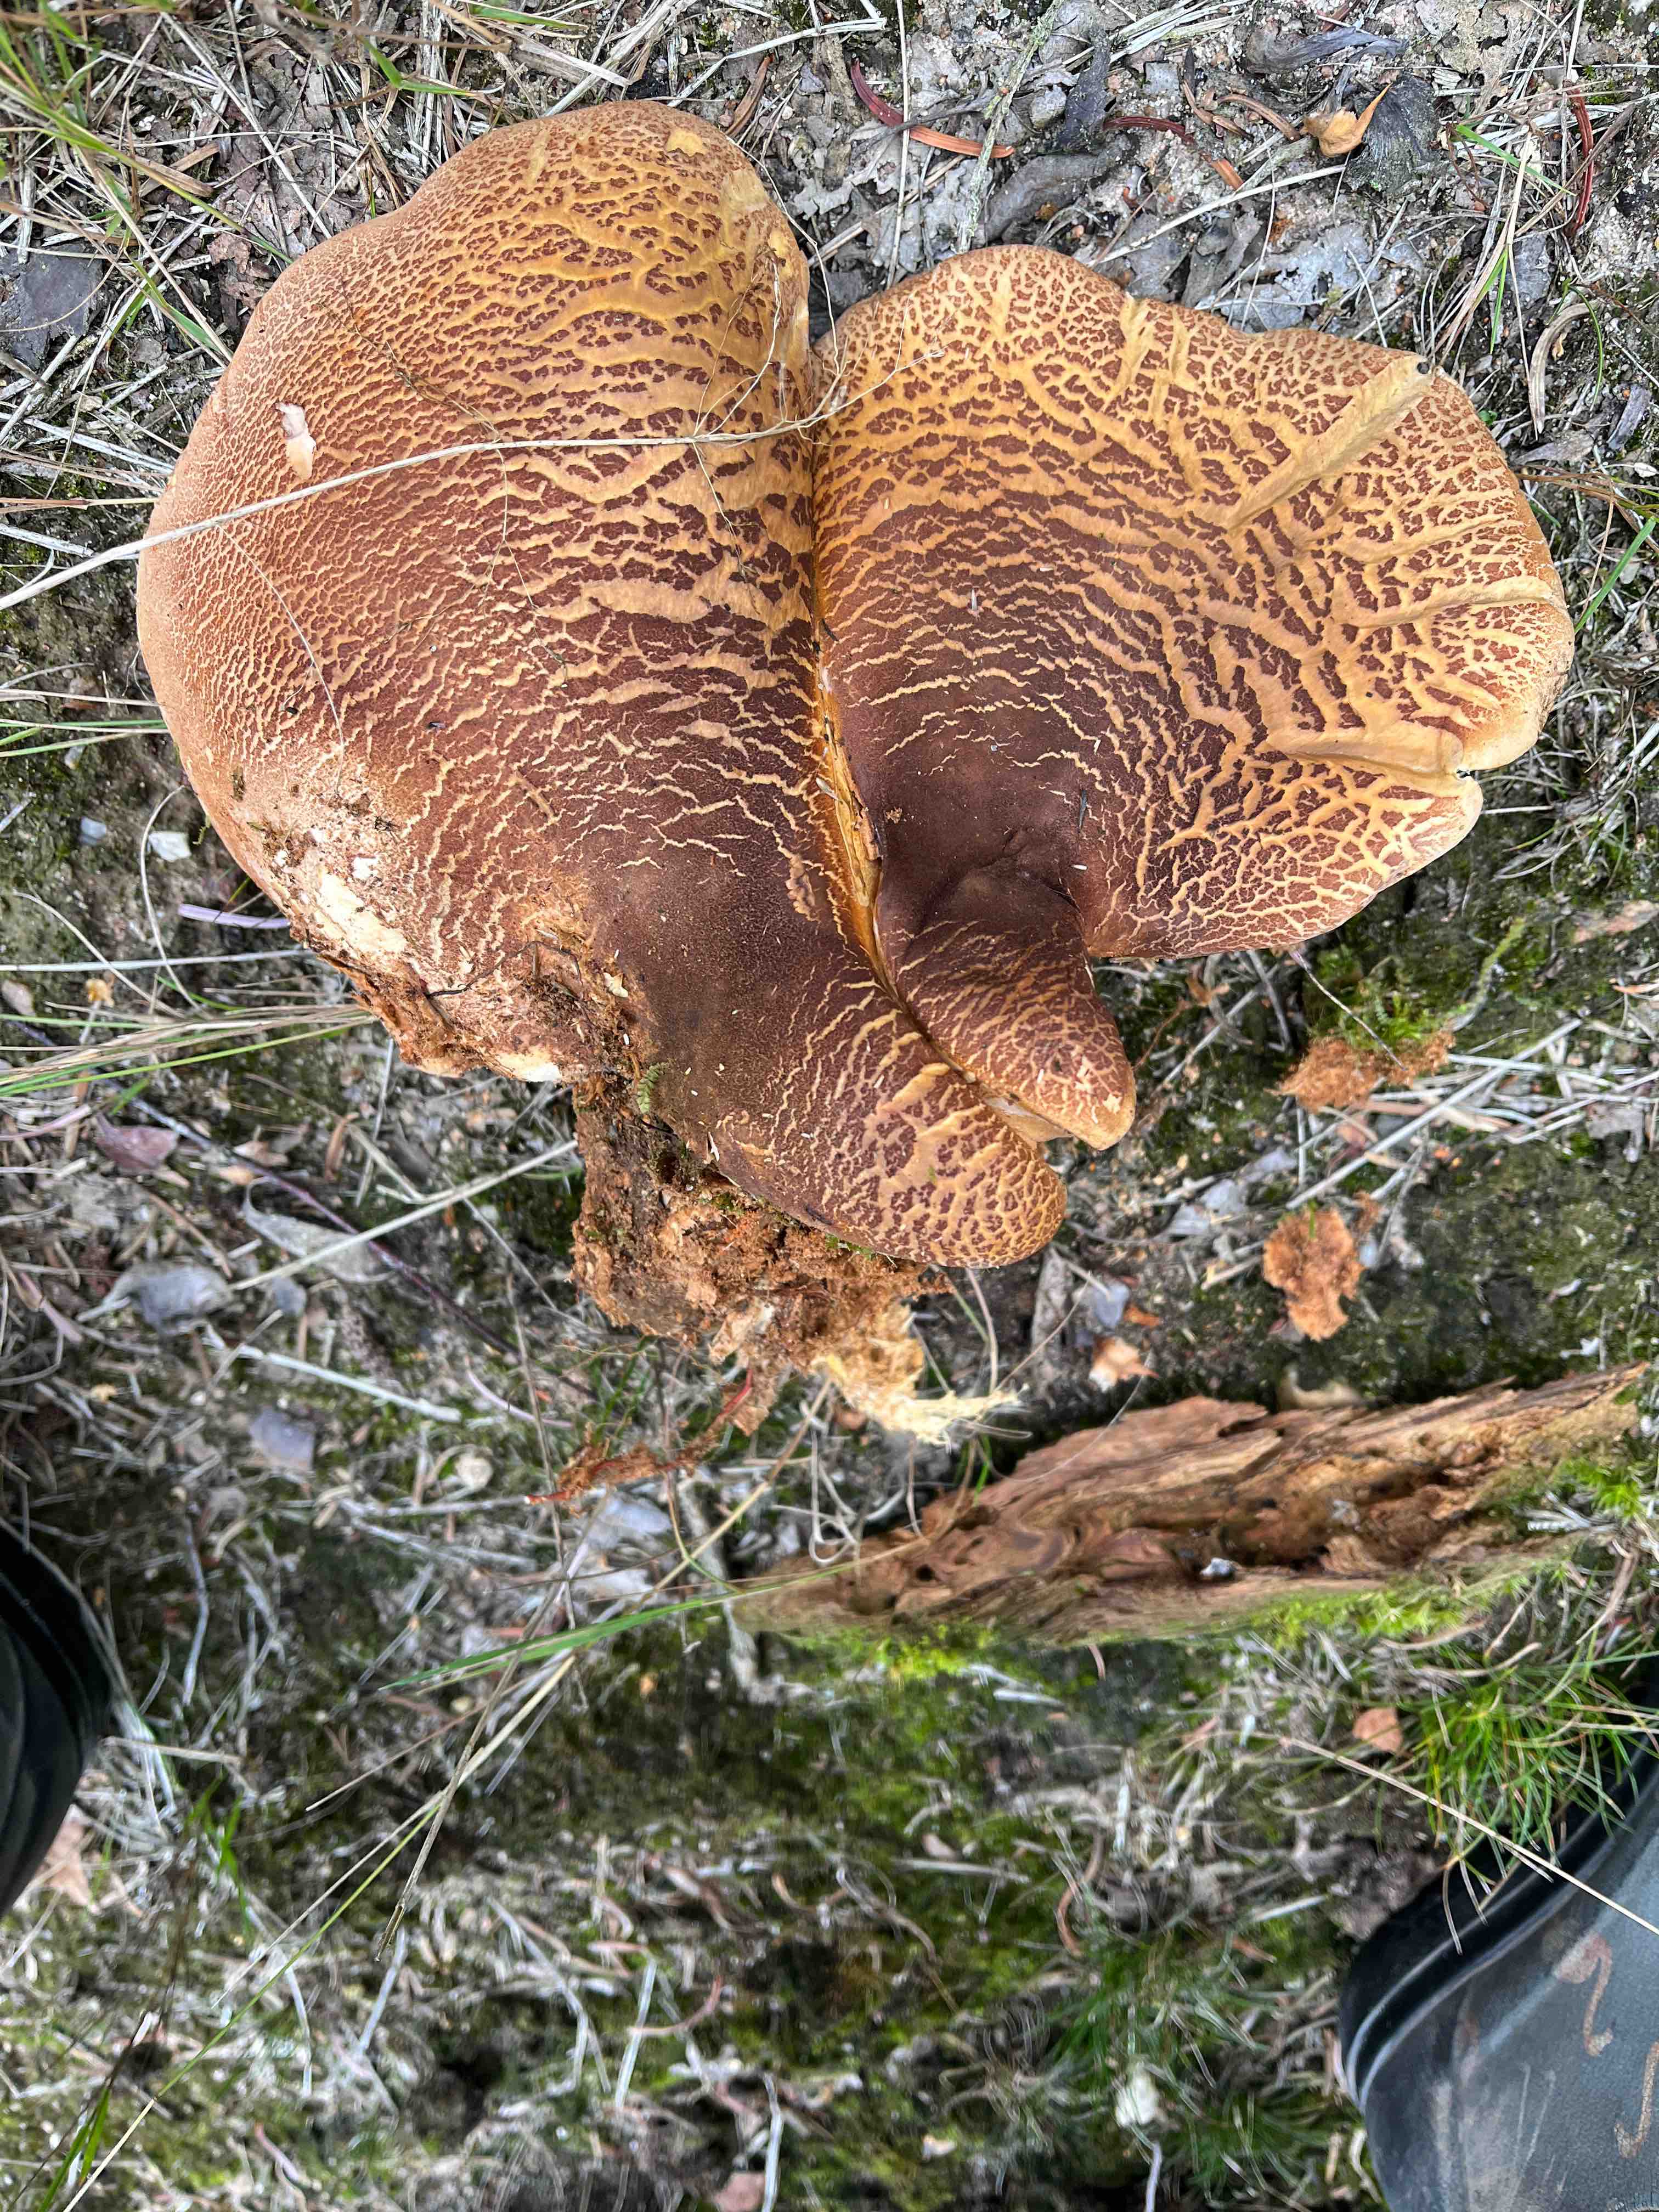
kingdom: Fungi
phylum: Basidiomycota
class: Agaricomycetes
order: Boletales
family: Tapinellaceae
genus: Tapinella
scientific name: Tapinella atrotomentosa
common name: sortfiltet viftesvamp
